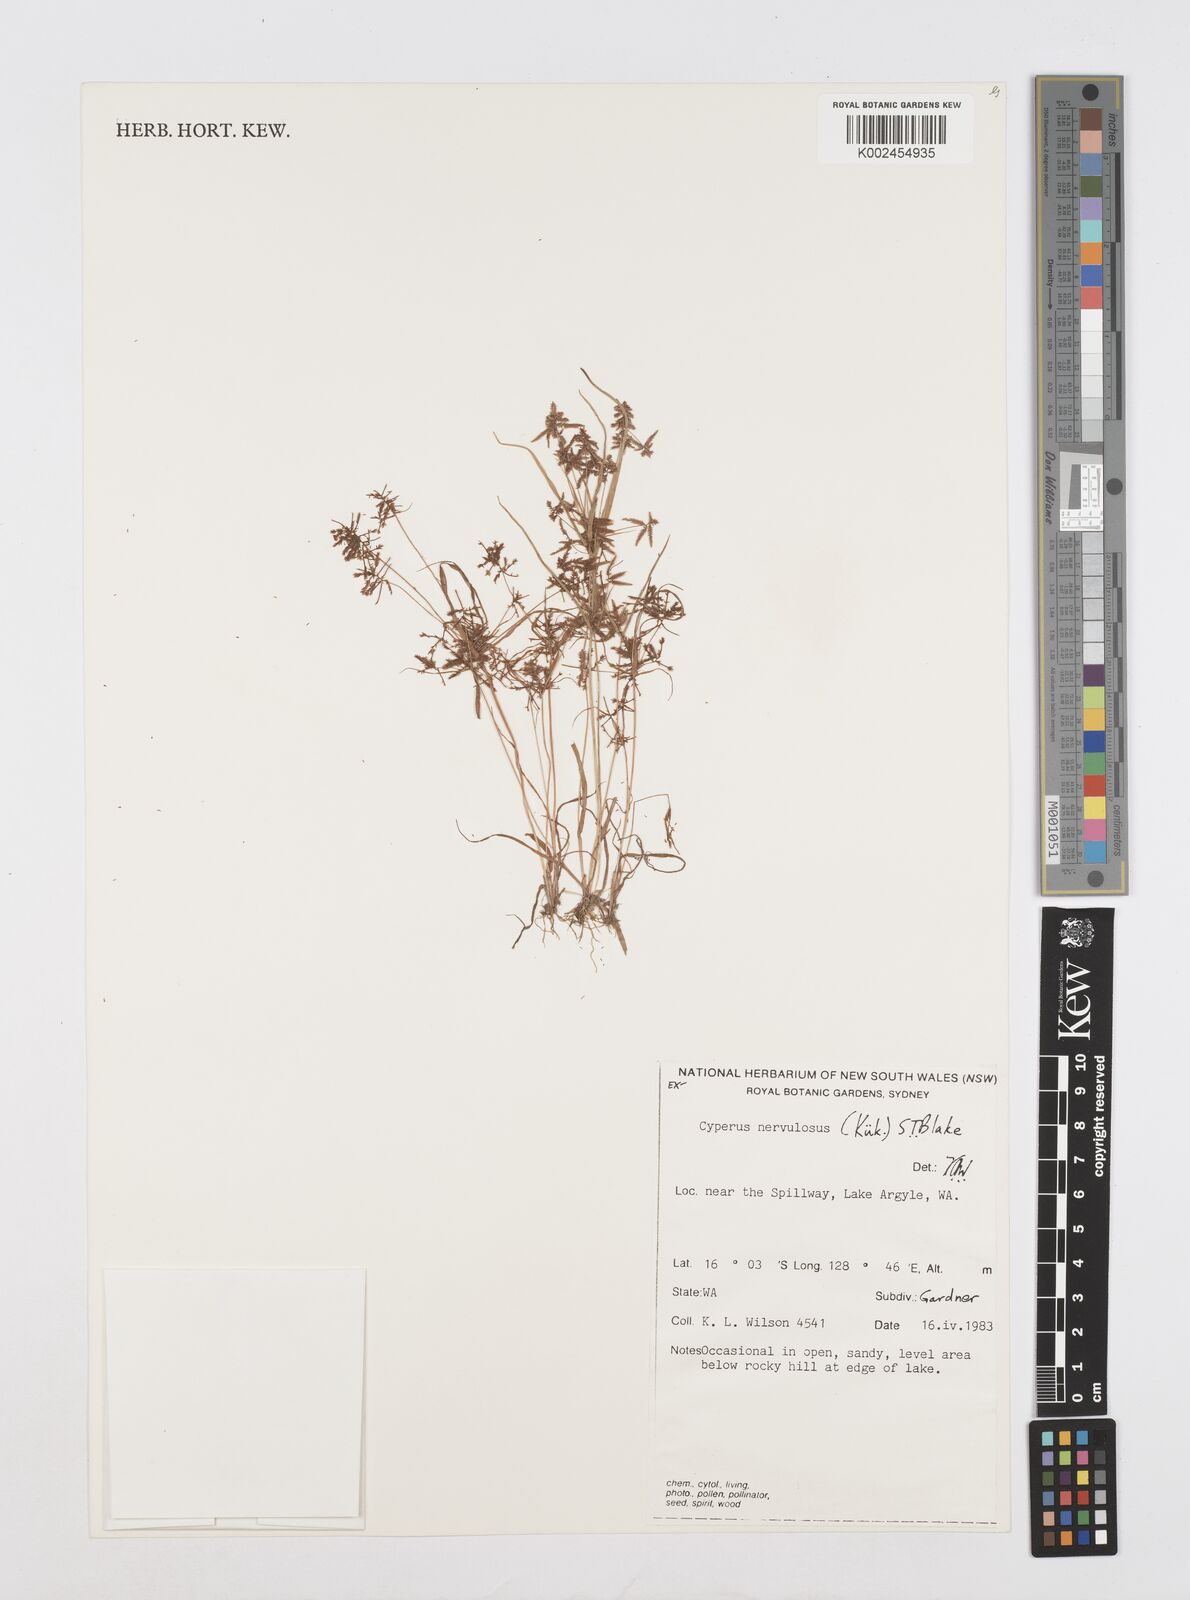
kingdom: Plantae
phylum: Tracheophyta
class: Liliopsida
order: Poales
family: Cyperaceae
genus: Cyperus
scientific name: Cyperus nervulosus
